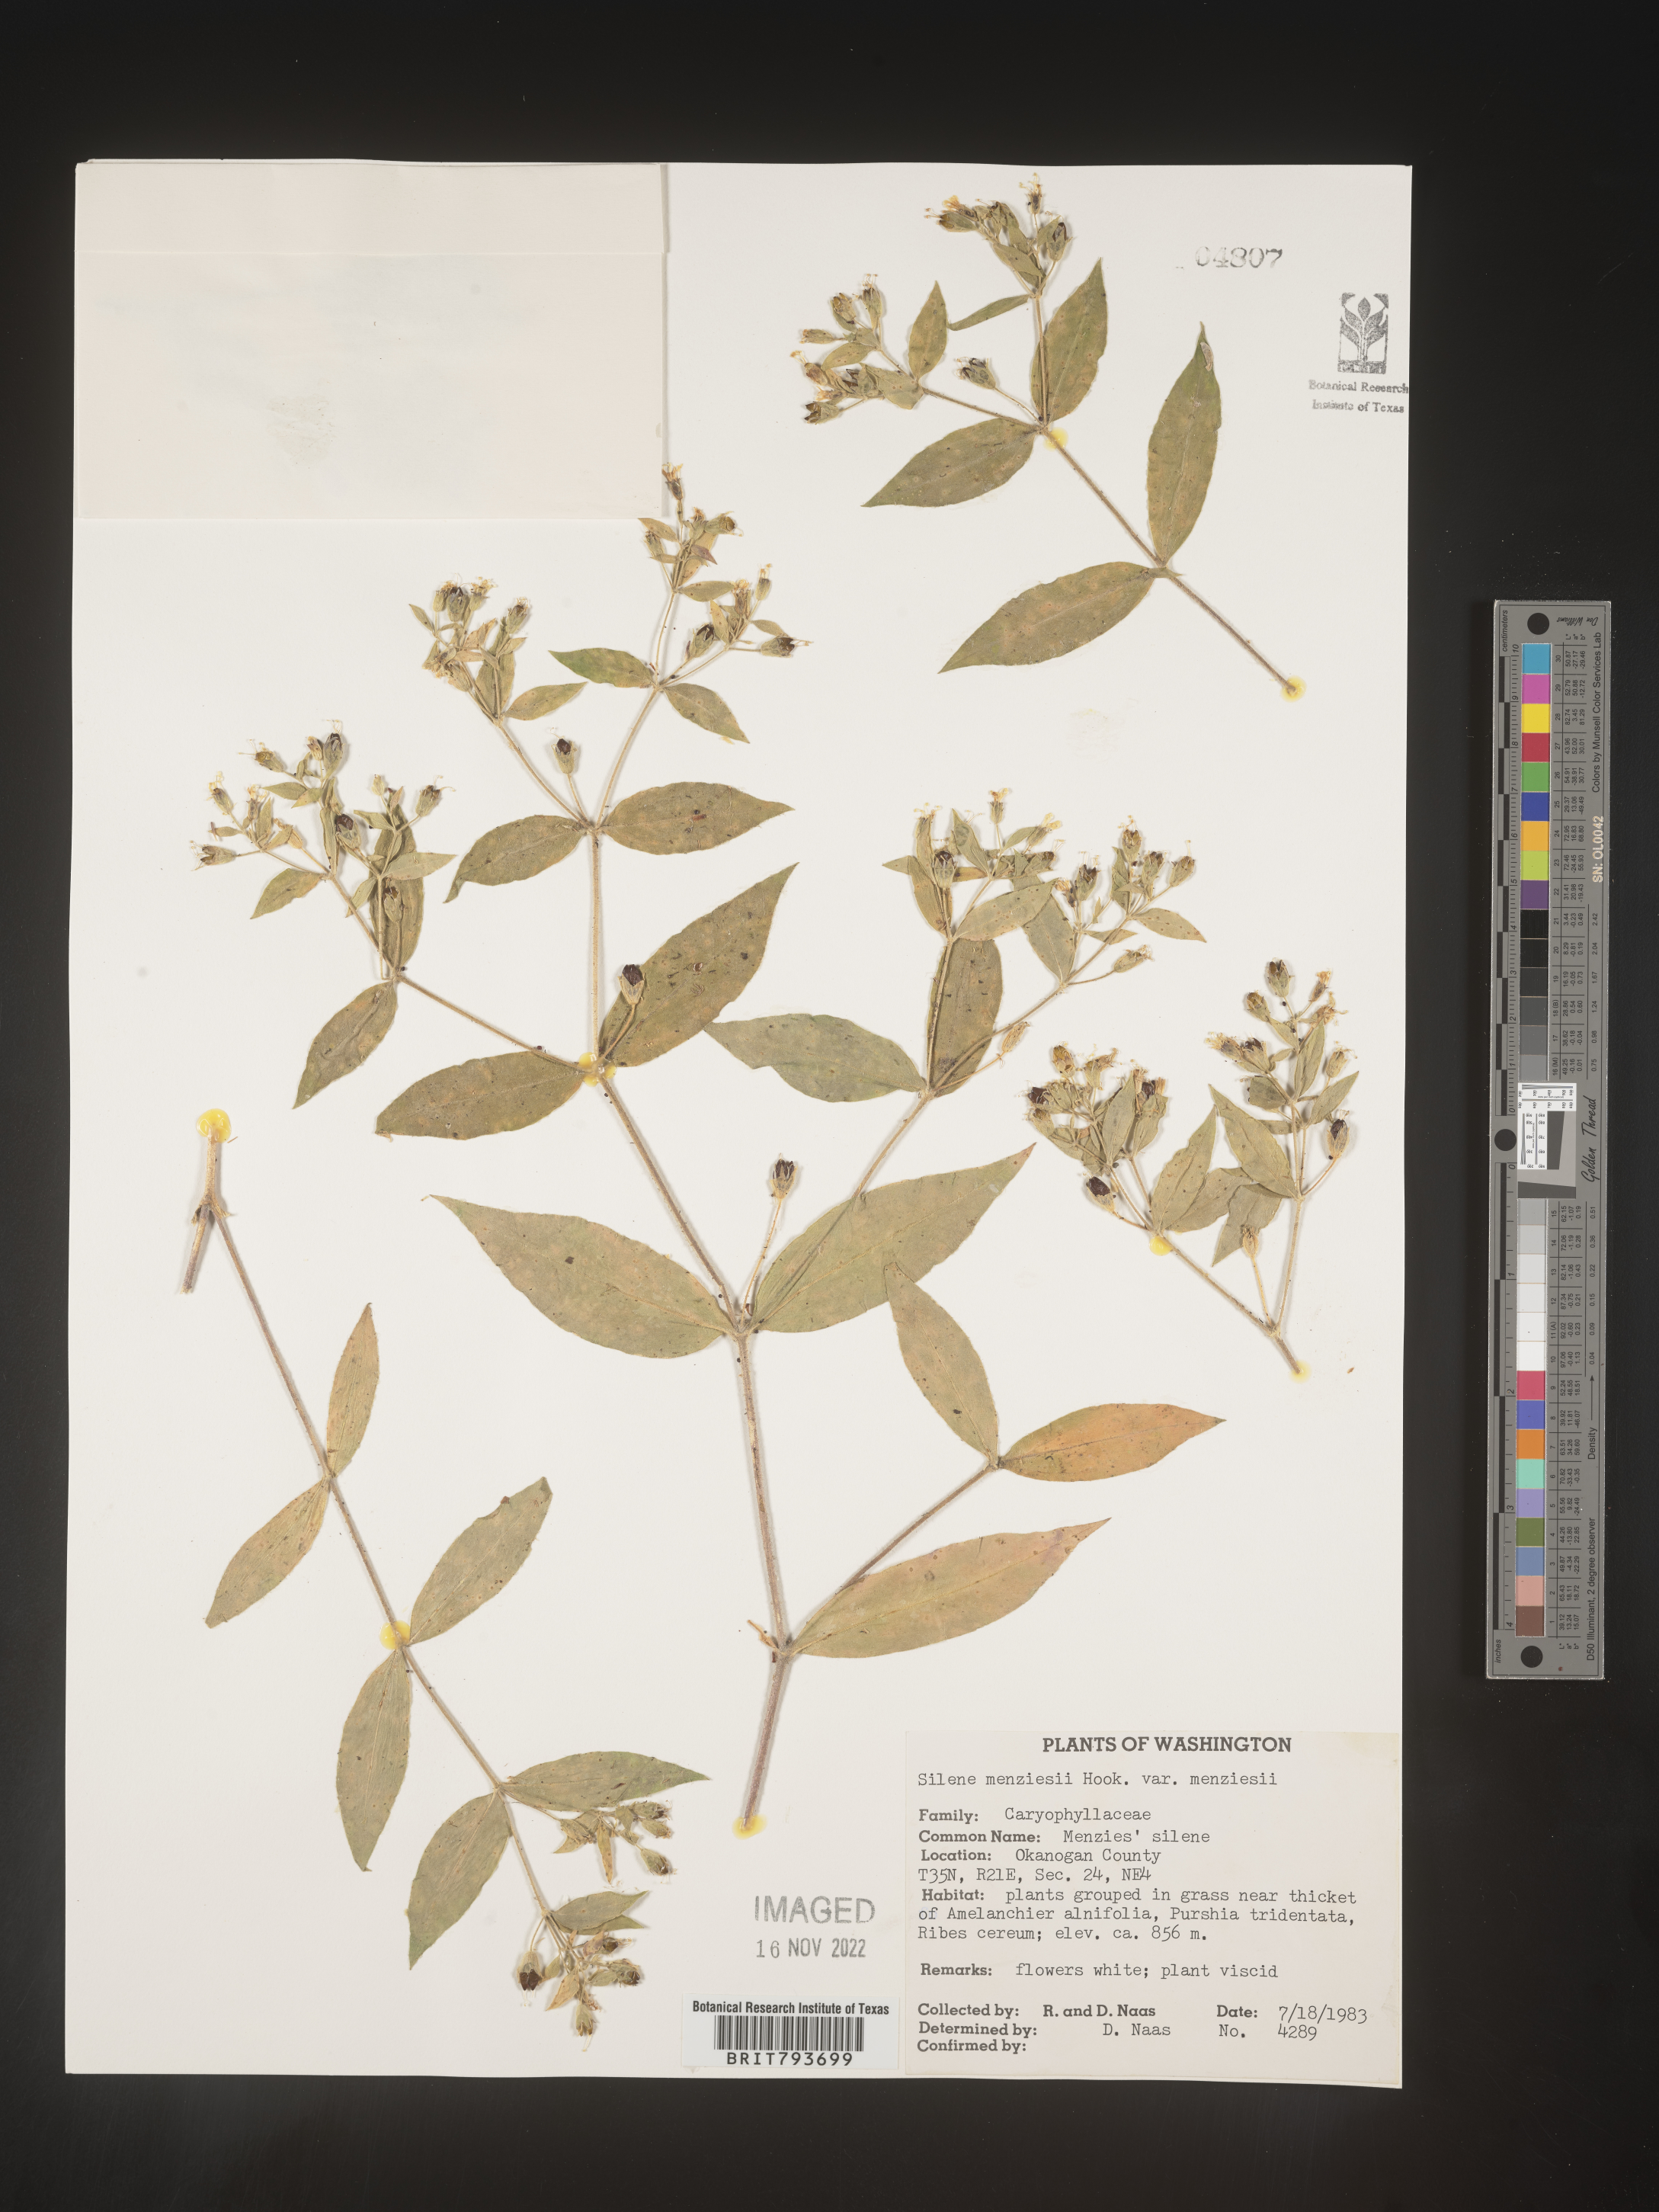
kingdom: Plantae
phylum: Tracheophyta
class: Magnoliopsida
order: Caryophyllales
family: Caryophyllaceae
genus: Silene
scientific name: Silene menziesii
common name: Menzies's catchfly
